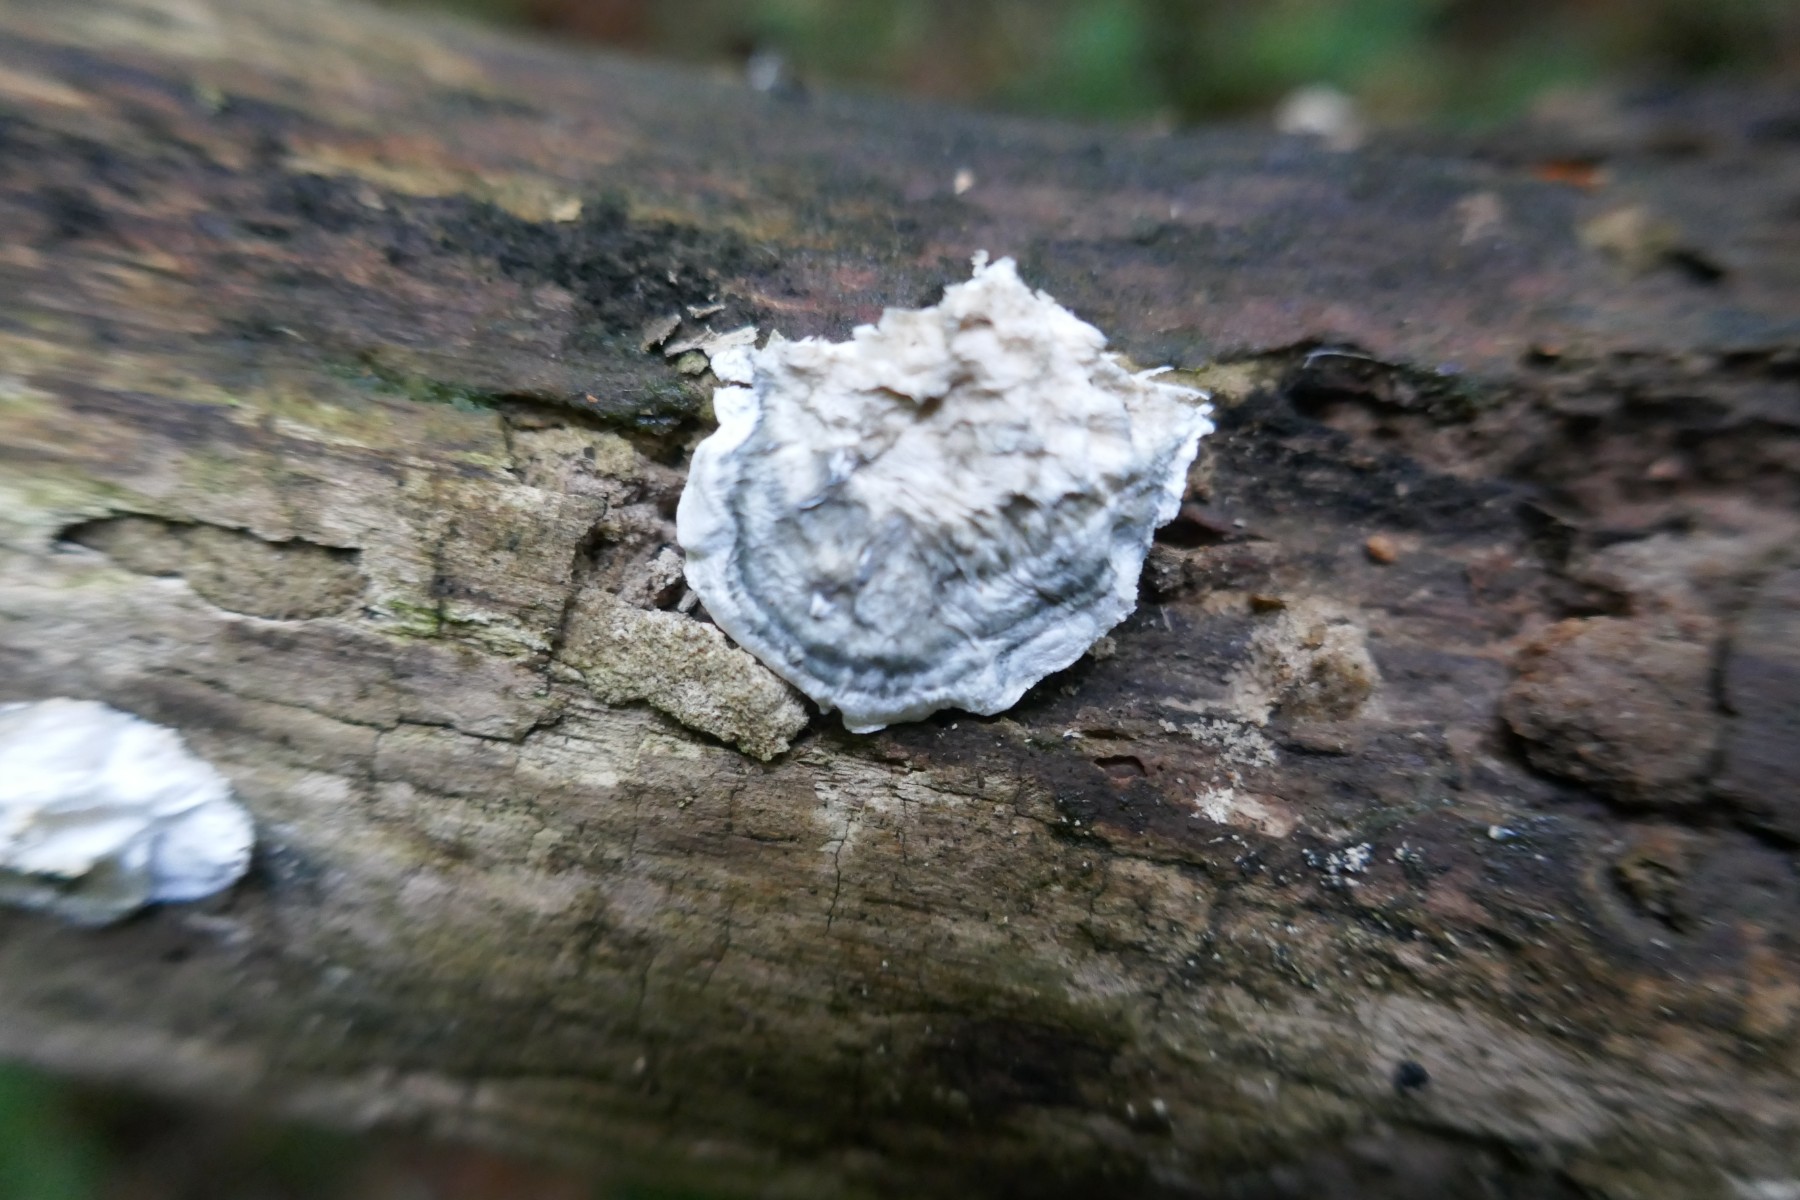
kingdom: Fungi
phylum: Basidiomycota
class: Agaricomycetes
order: Polyporales
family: Polyporaceae
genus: Cyanosporus
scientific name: Cyanosporus caesius
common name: blålig kødporesvamp
